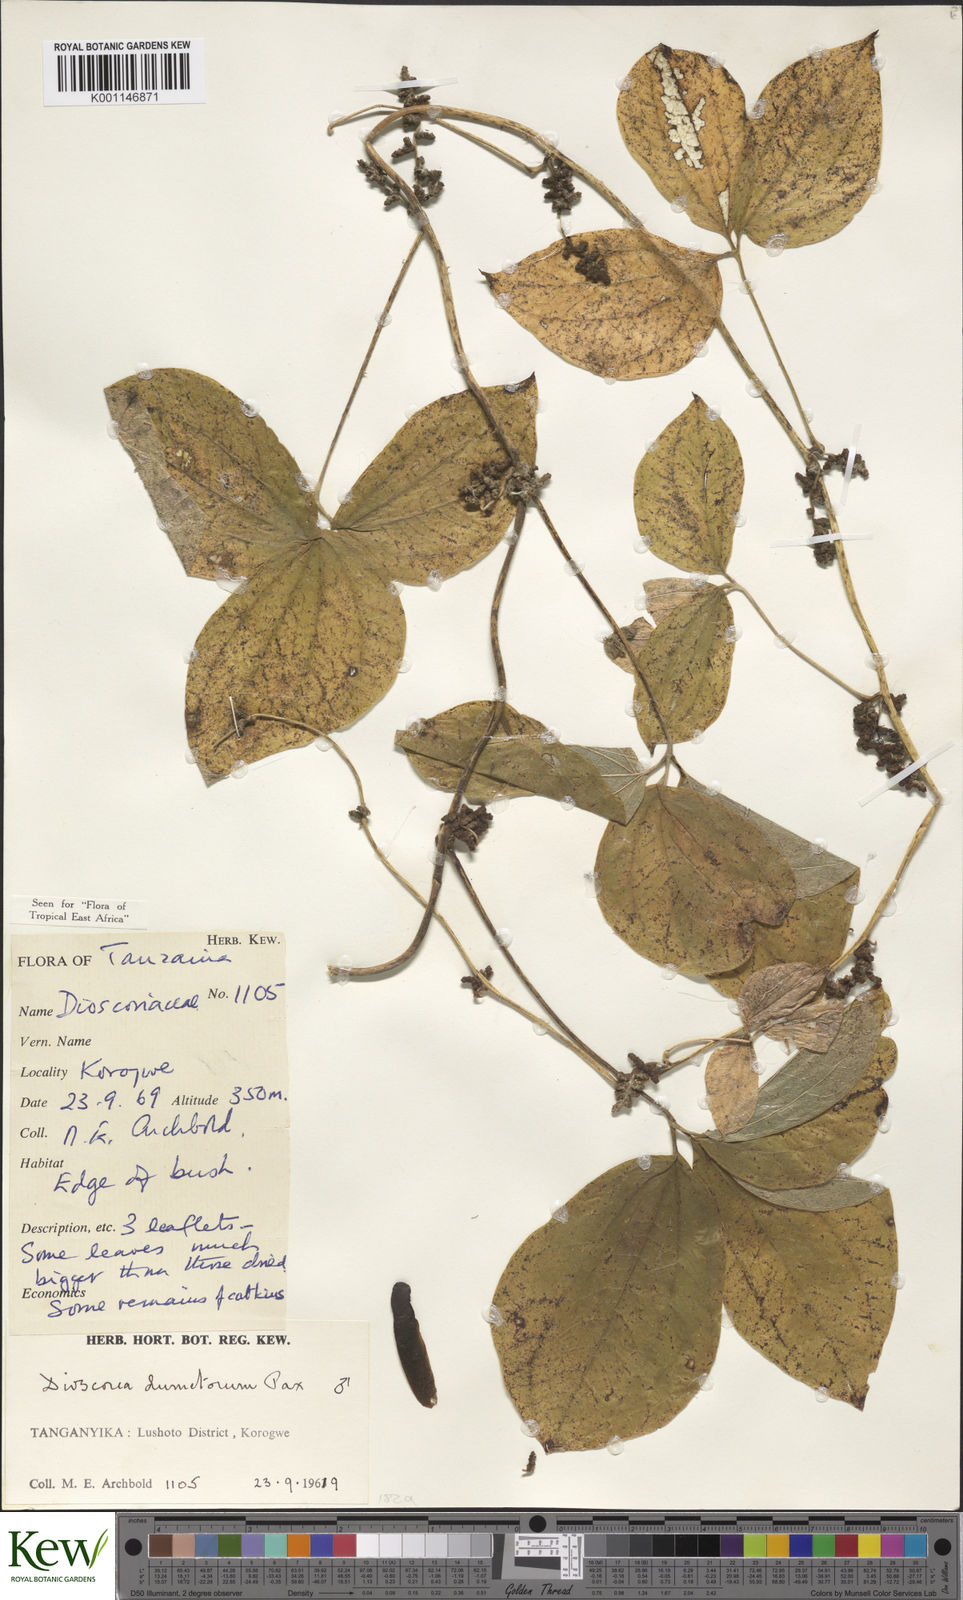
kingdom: Plantae
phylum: Tracheophyta
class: Liliopsida
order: Dioscoreales
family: Dioscoreaceae
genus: Dioscorea
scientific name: Dioscorea dumetorum
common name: African bitter yam
